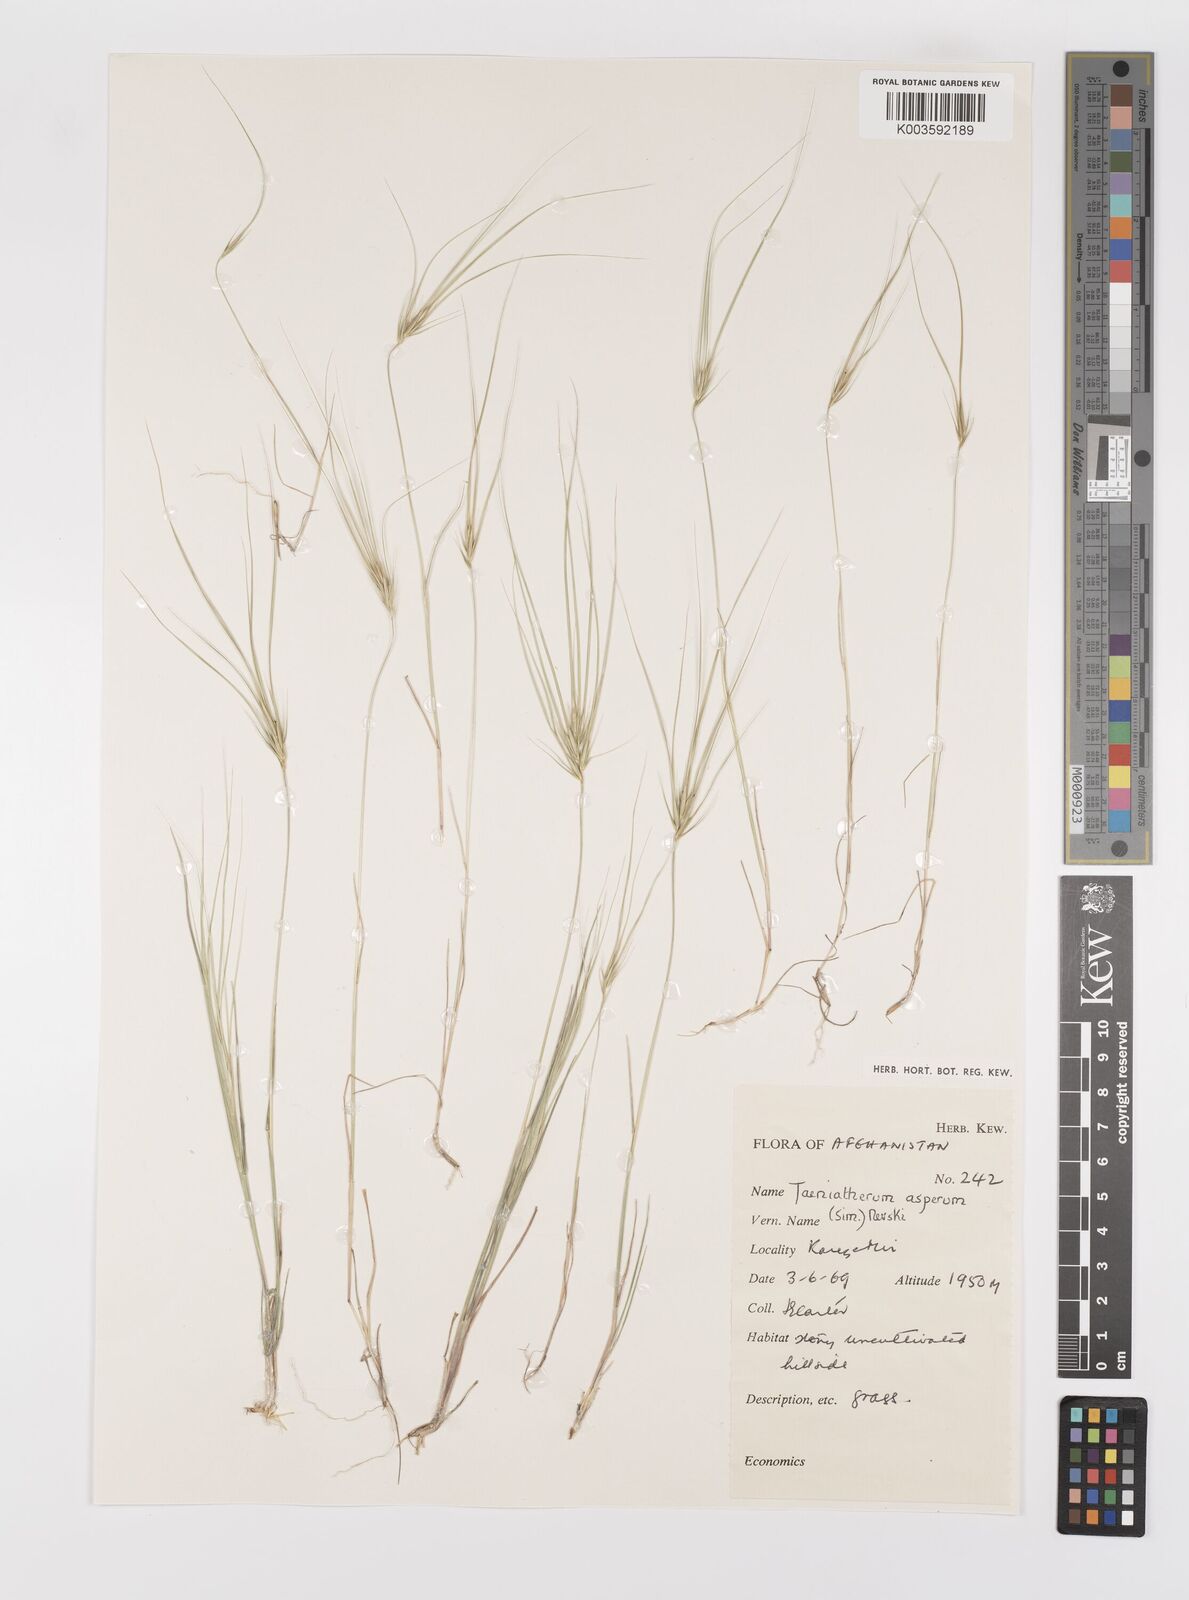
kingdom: Plantae
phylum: Tracheophyta
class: Liliopsida
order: Poales
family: Poaceae
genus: Taeniatherum
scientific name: Taeniatherum caput-medusae
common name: Medusahead
